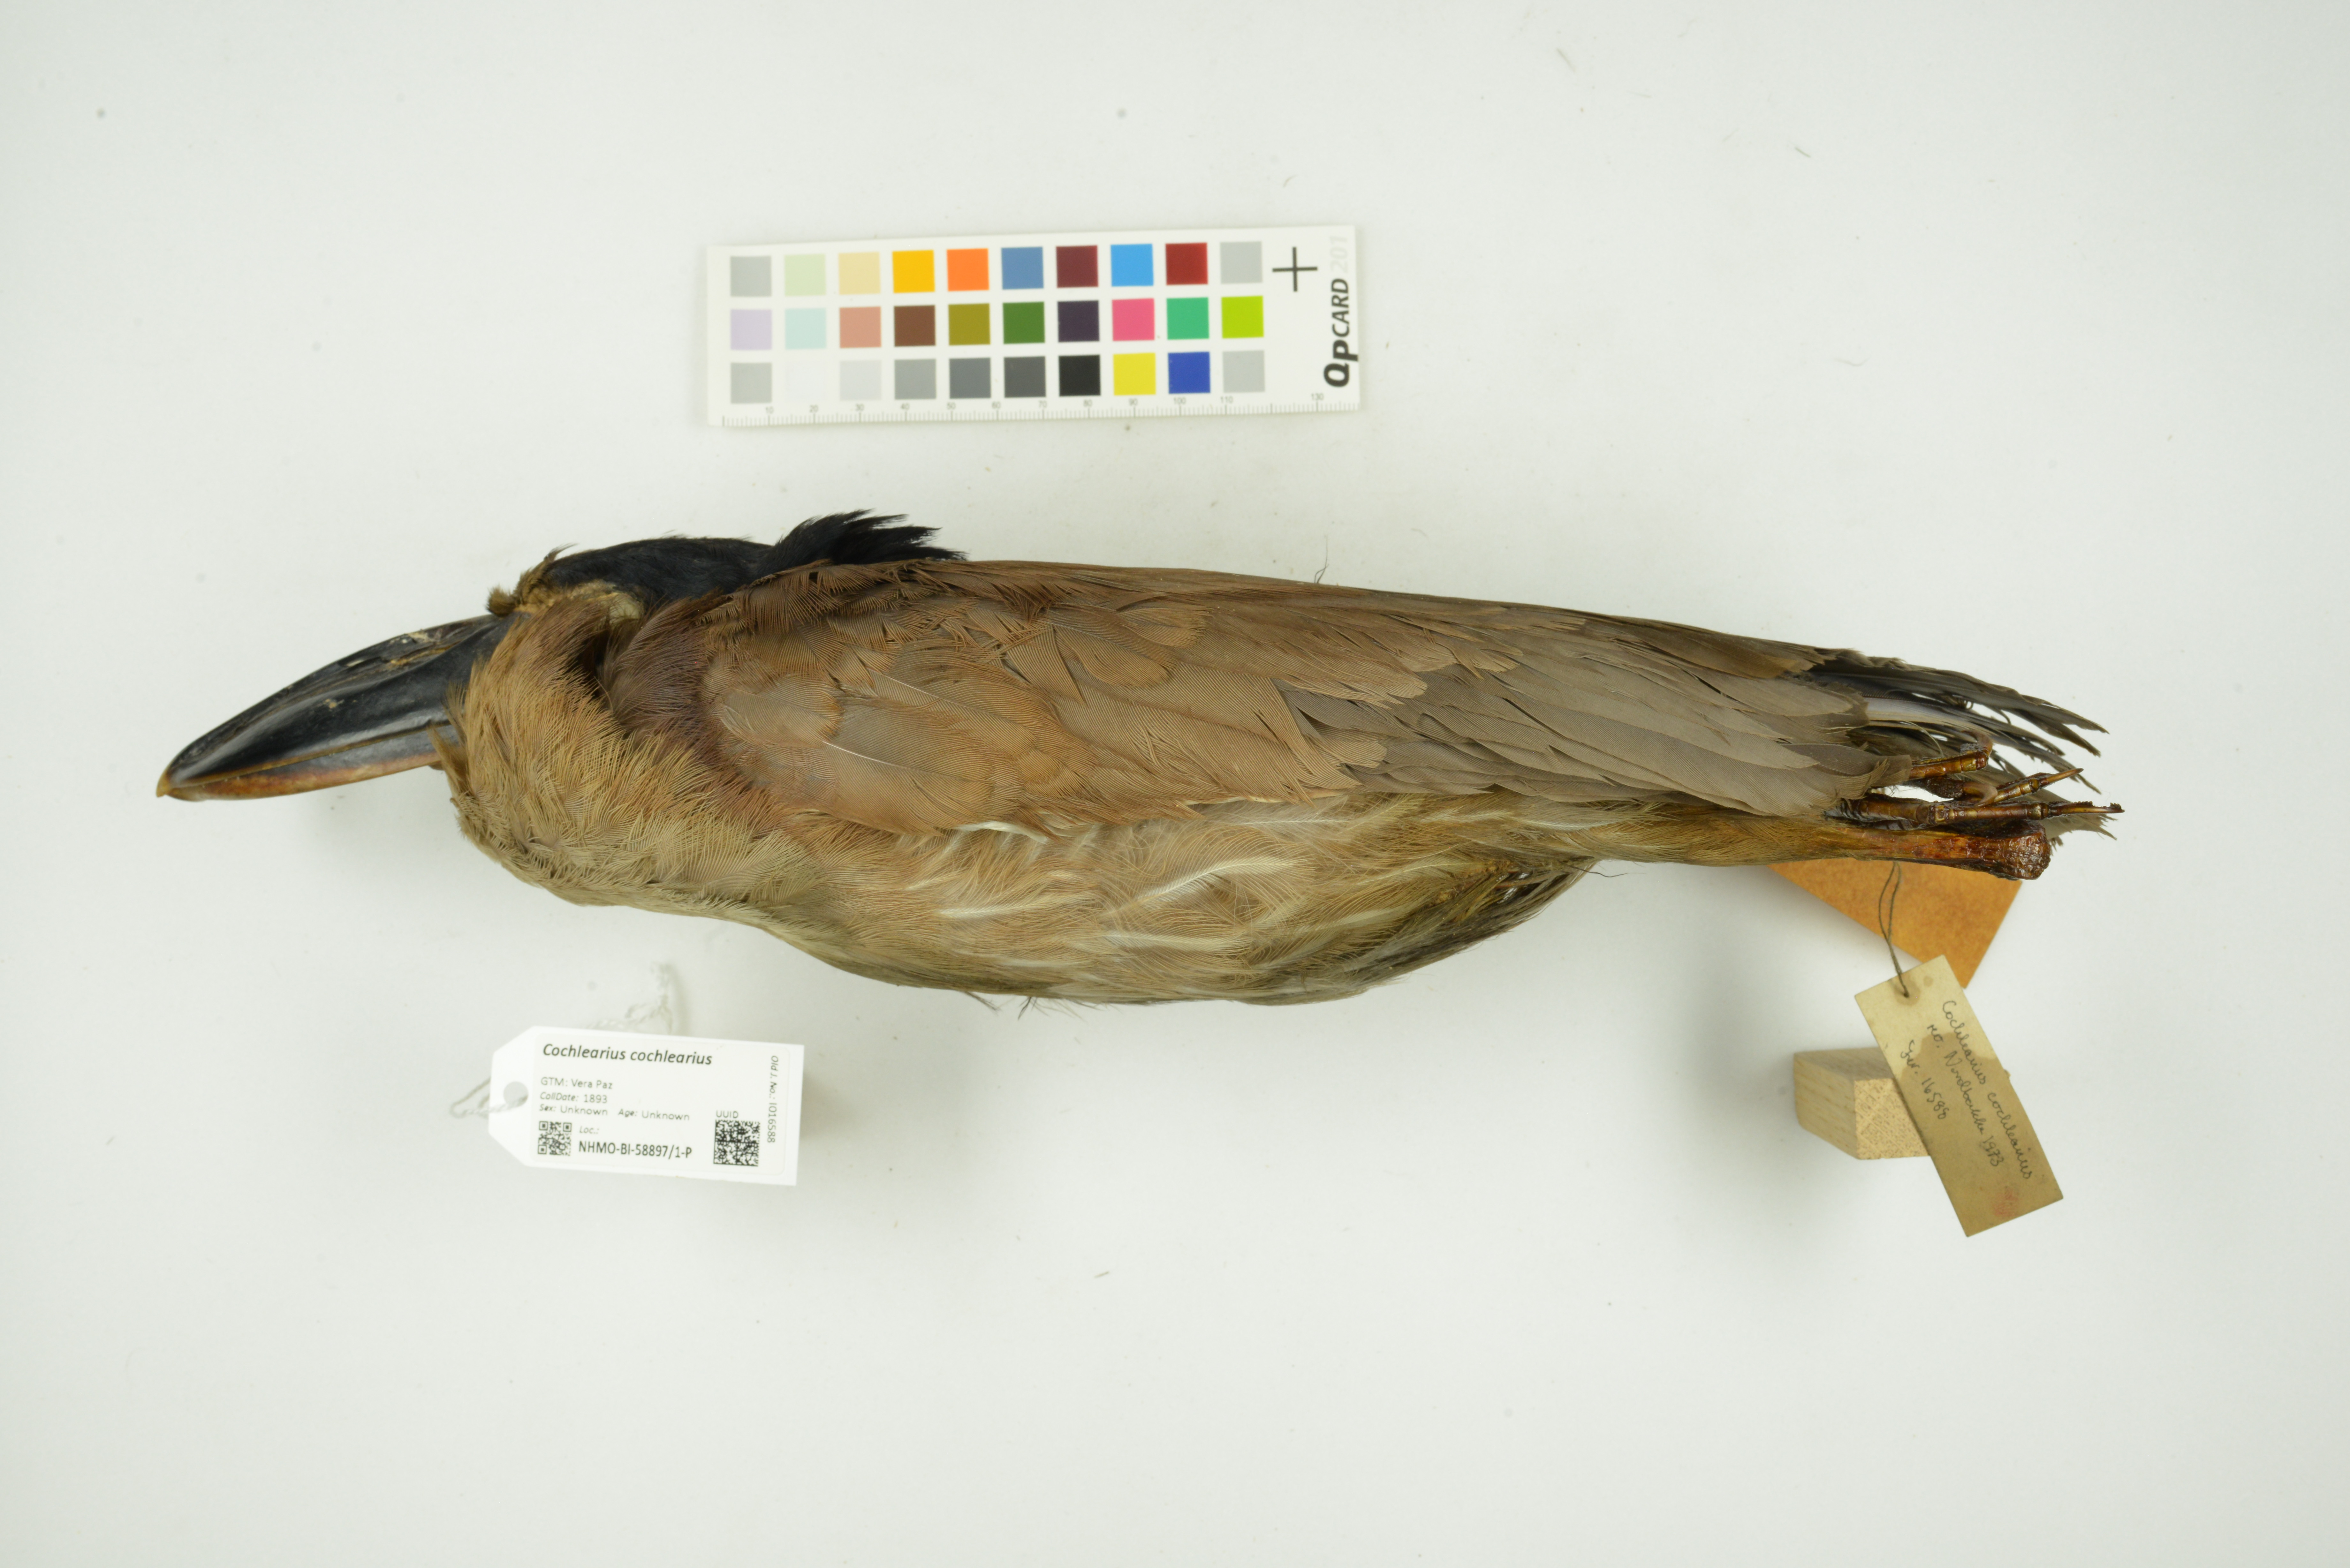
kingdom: Animalia
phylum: Chordata
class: Aves
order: Pelecaniformes
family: Ardeidae
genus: Cochlearius
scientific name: Cochlearius cochlearius
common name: Boat-billed heron
